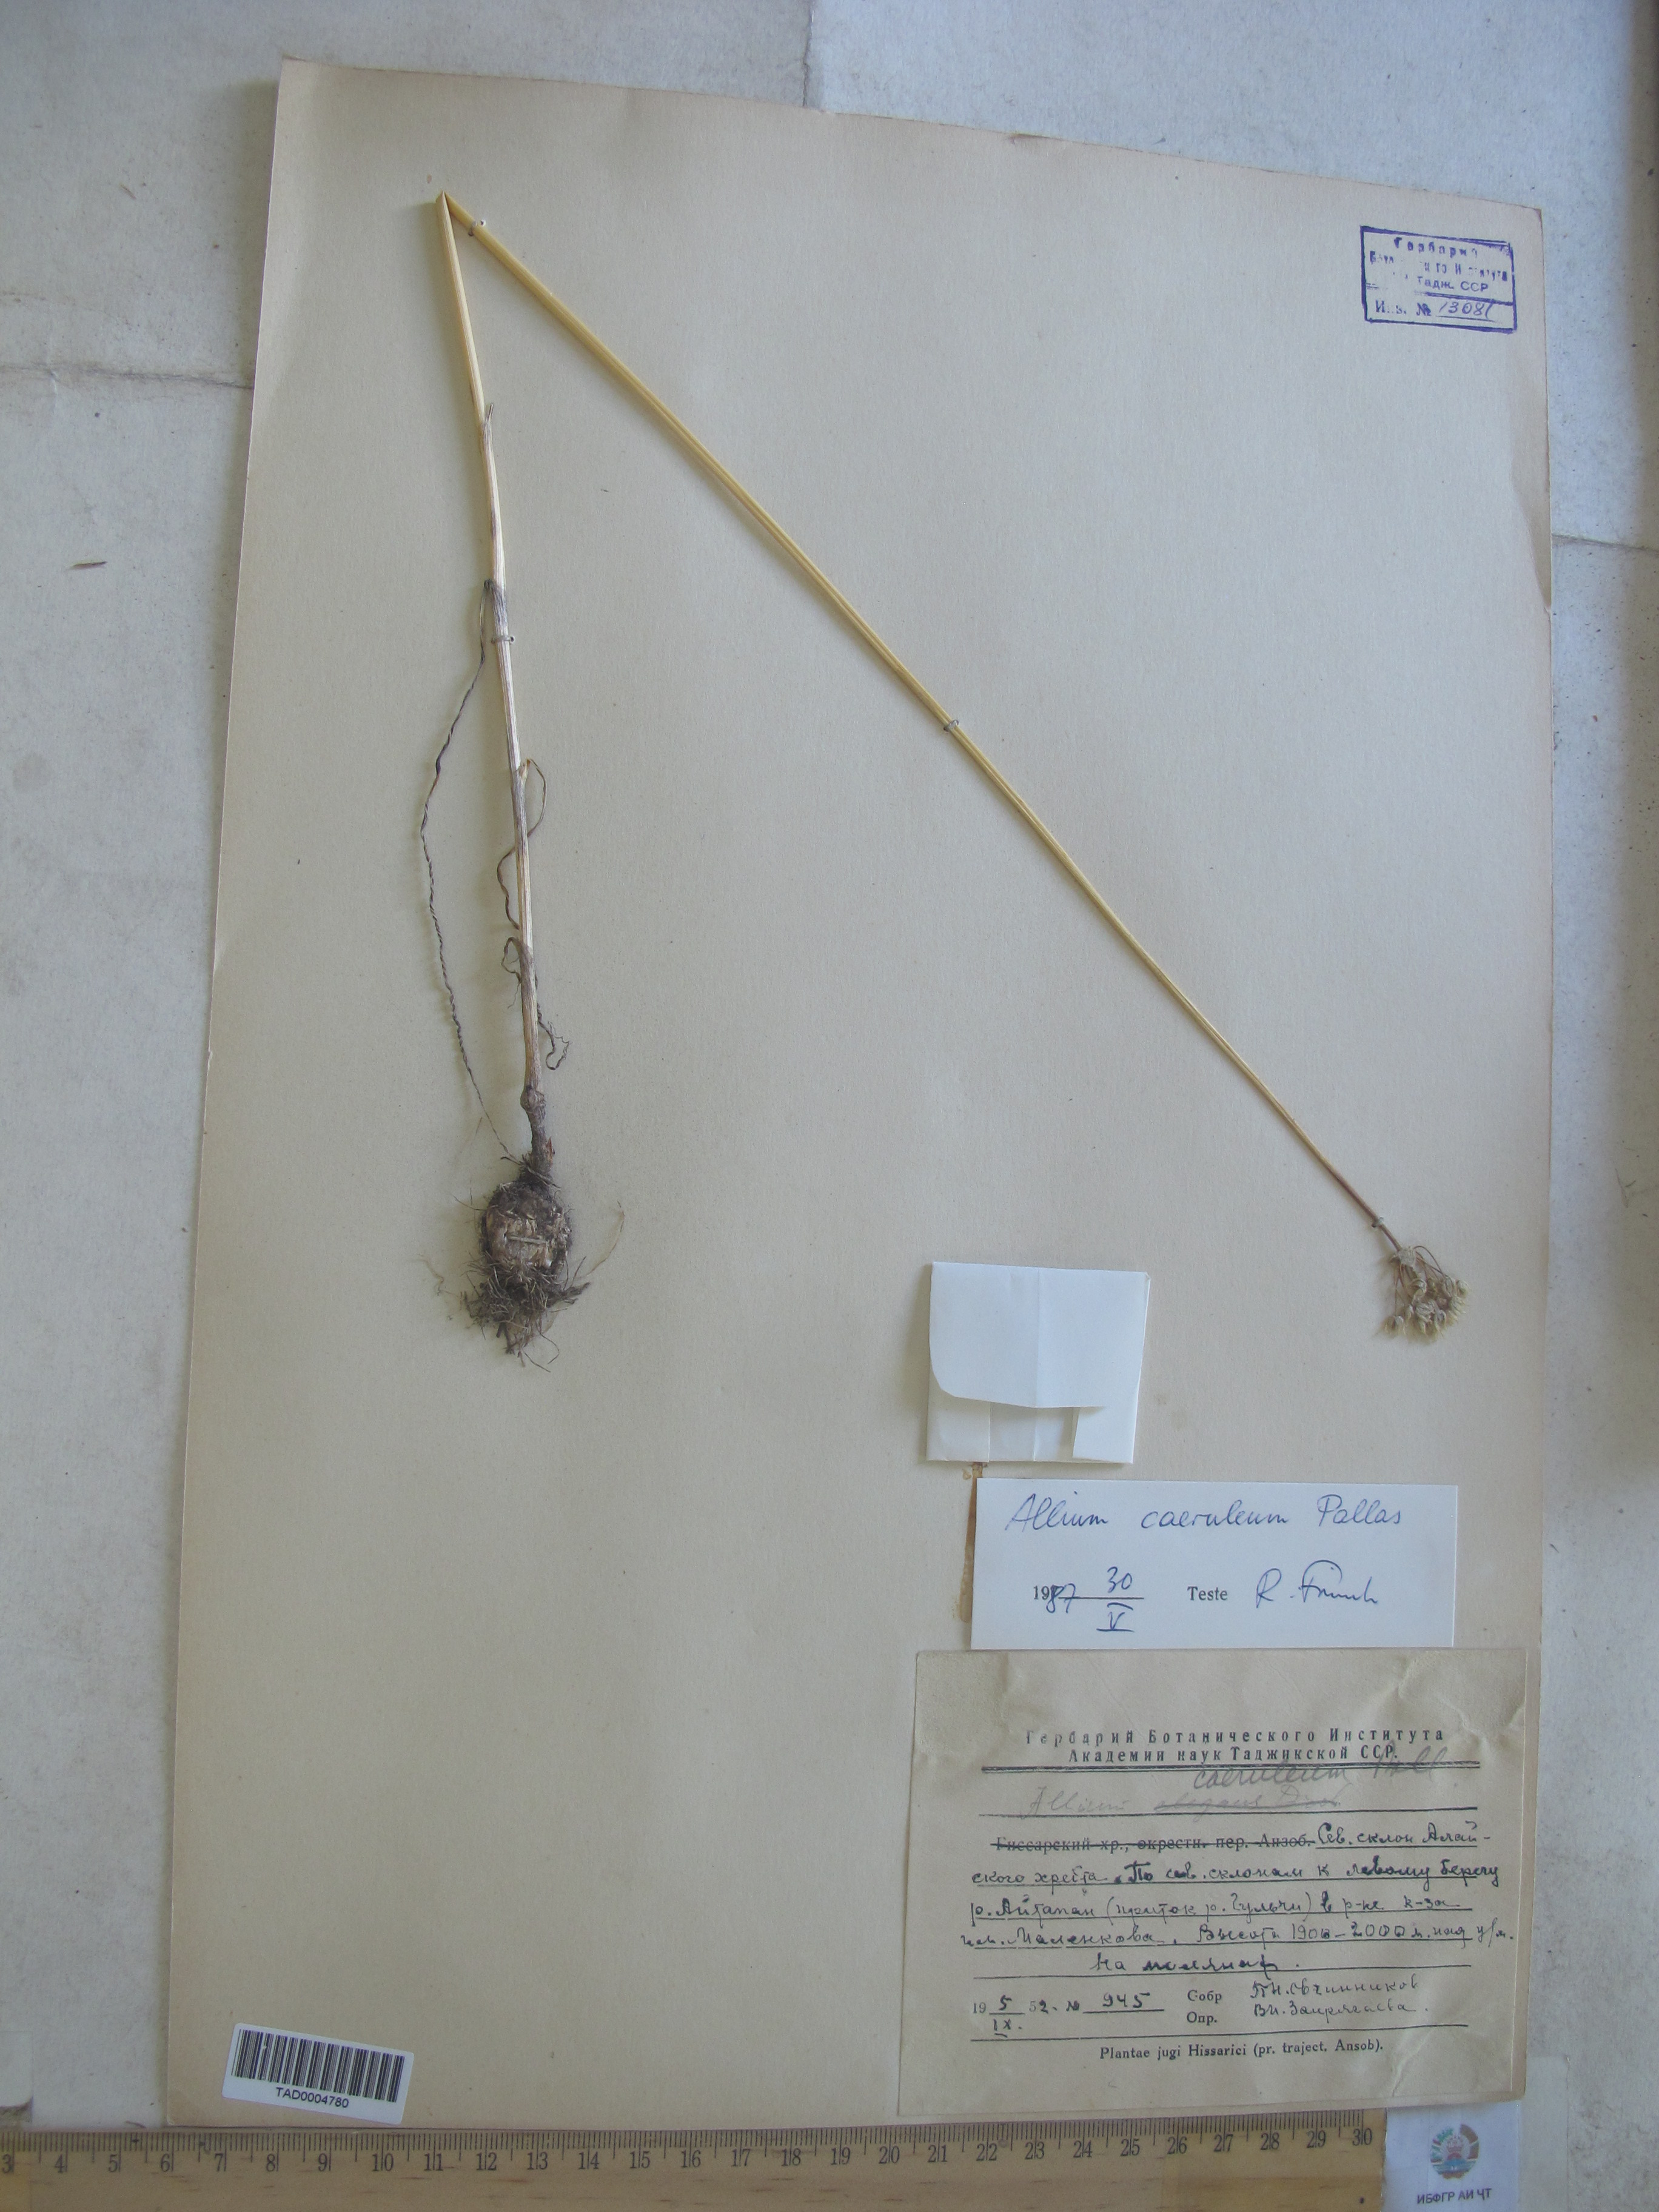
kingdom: Plantae
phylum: Tracheophyta
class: Liliopsida
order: Asparagales
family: Amaryllidaceae
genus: Allium
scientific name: Allium caeruleum
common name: Blue-of-the-heavens
